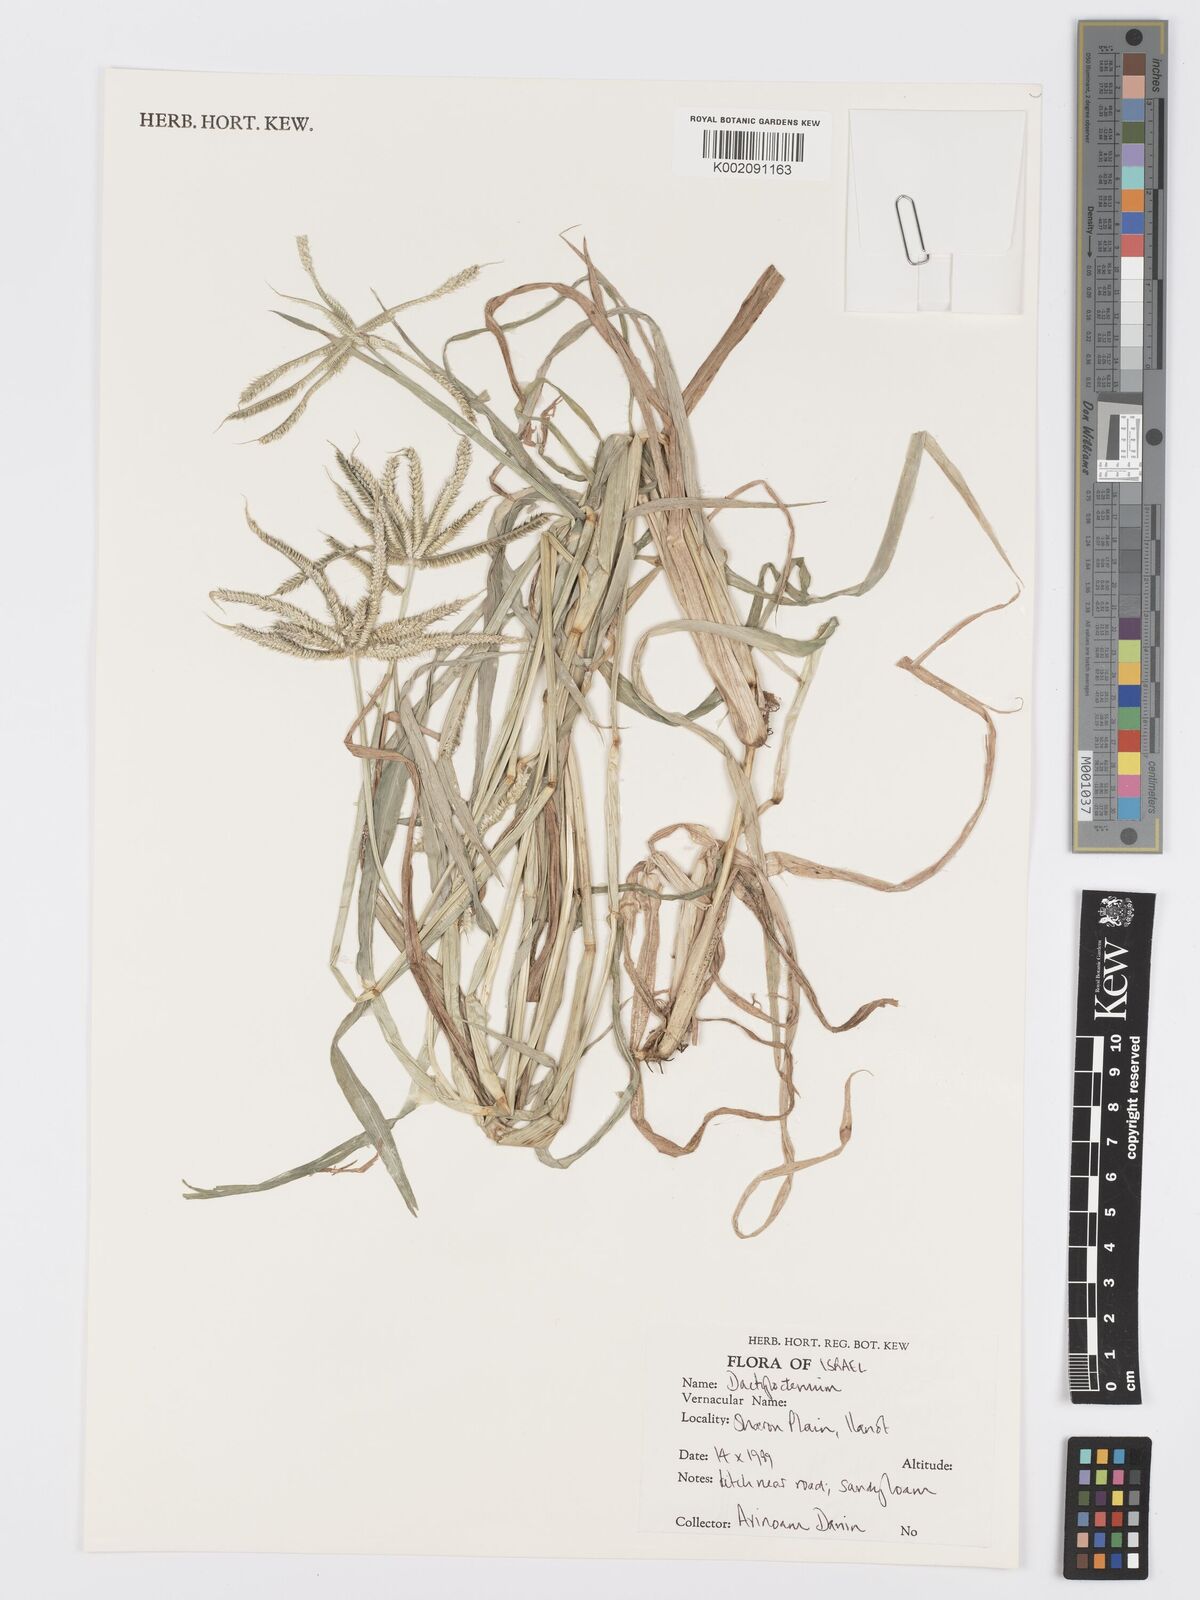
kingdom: Plantae
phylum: Tracheophyta
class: Liliopsida
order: Poales
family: Poaceae
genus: Dactyloctenium
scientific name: Dactyloctenium
